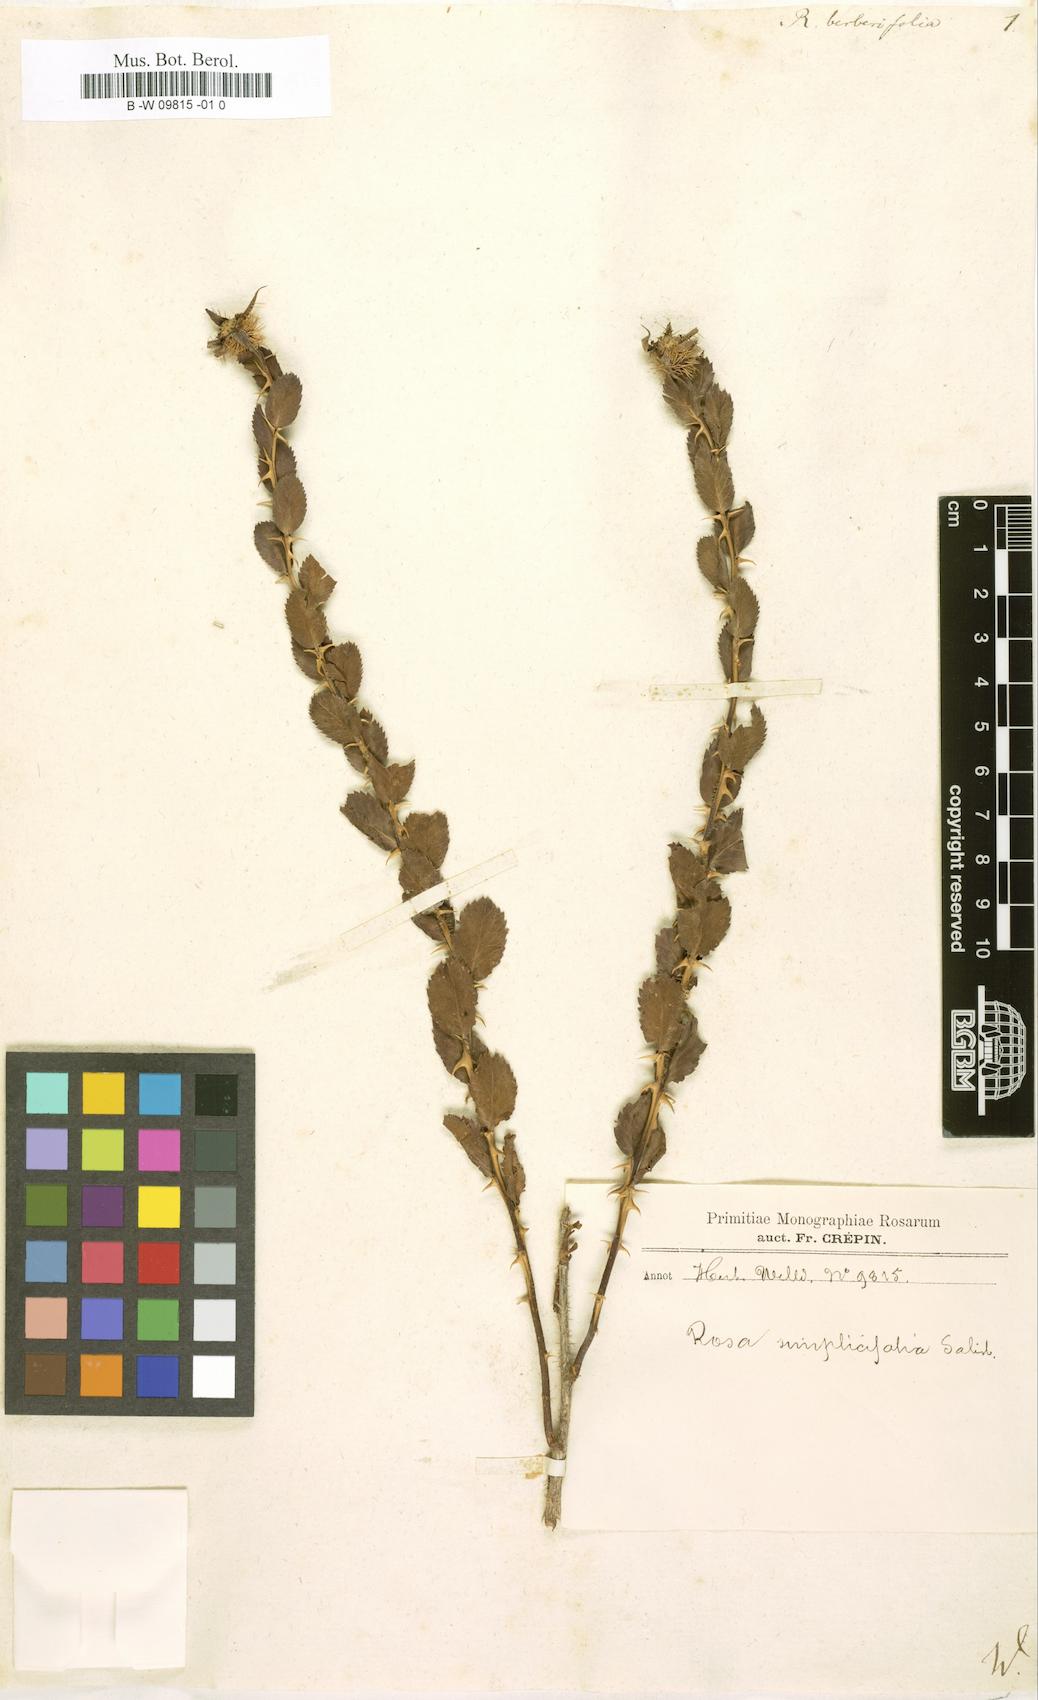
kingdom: Plantae
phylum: Tracheophyta
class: Magnoliopsida
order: Rosales
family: Rosaceae
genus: Rosa
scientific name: Rosa persica
